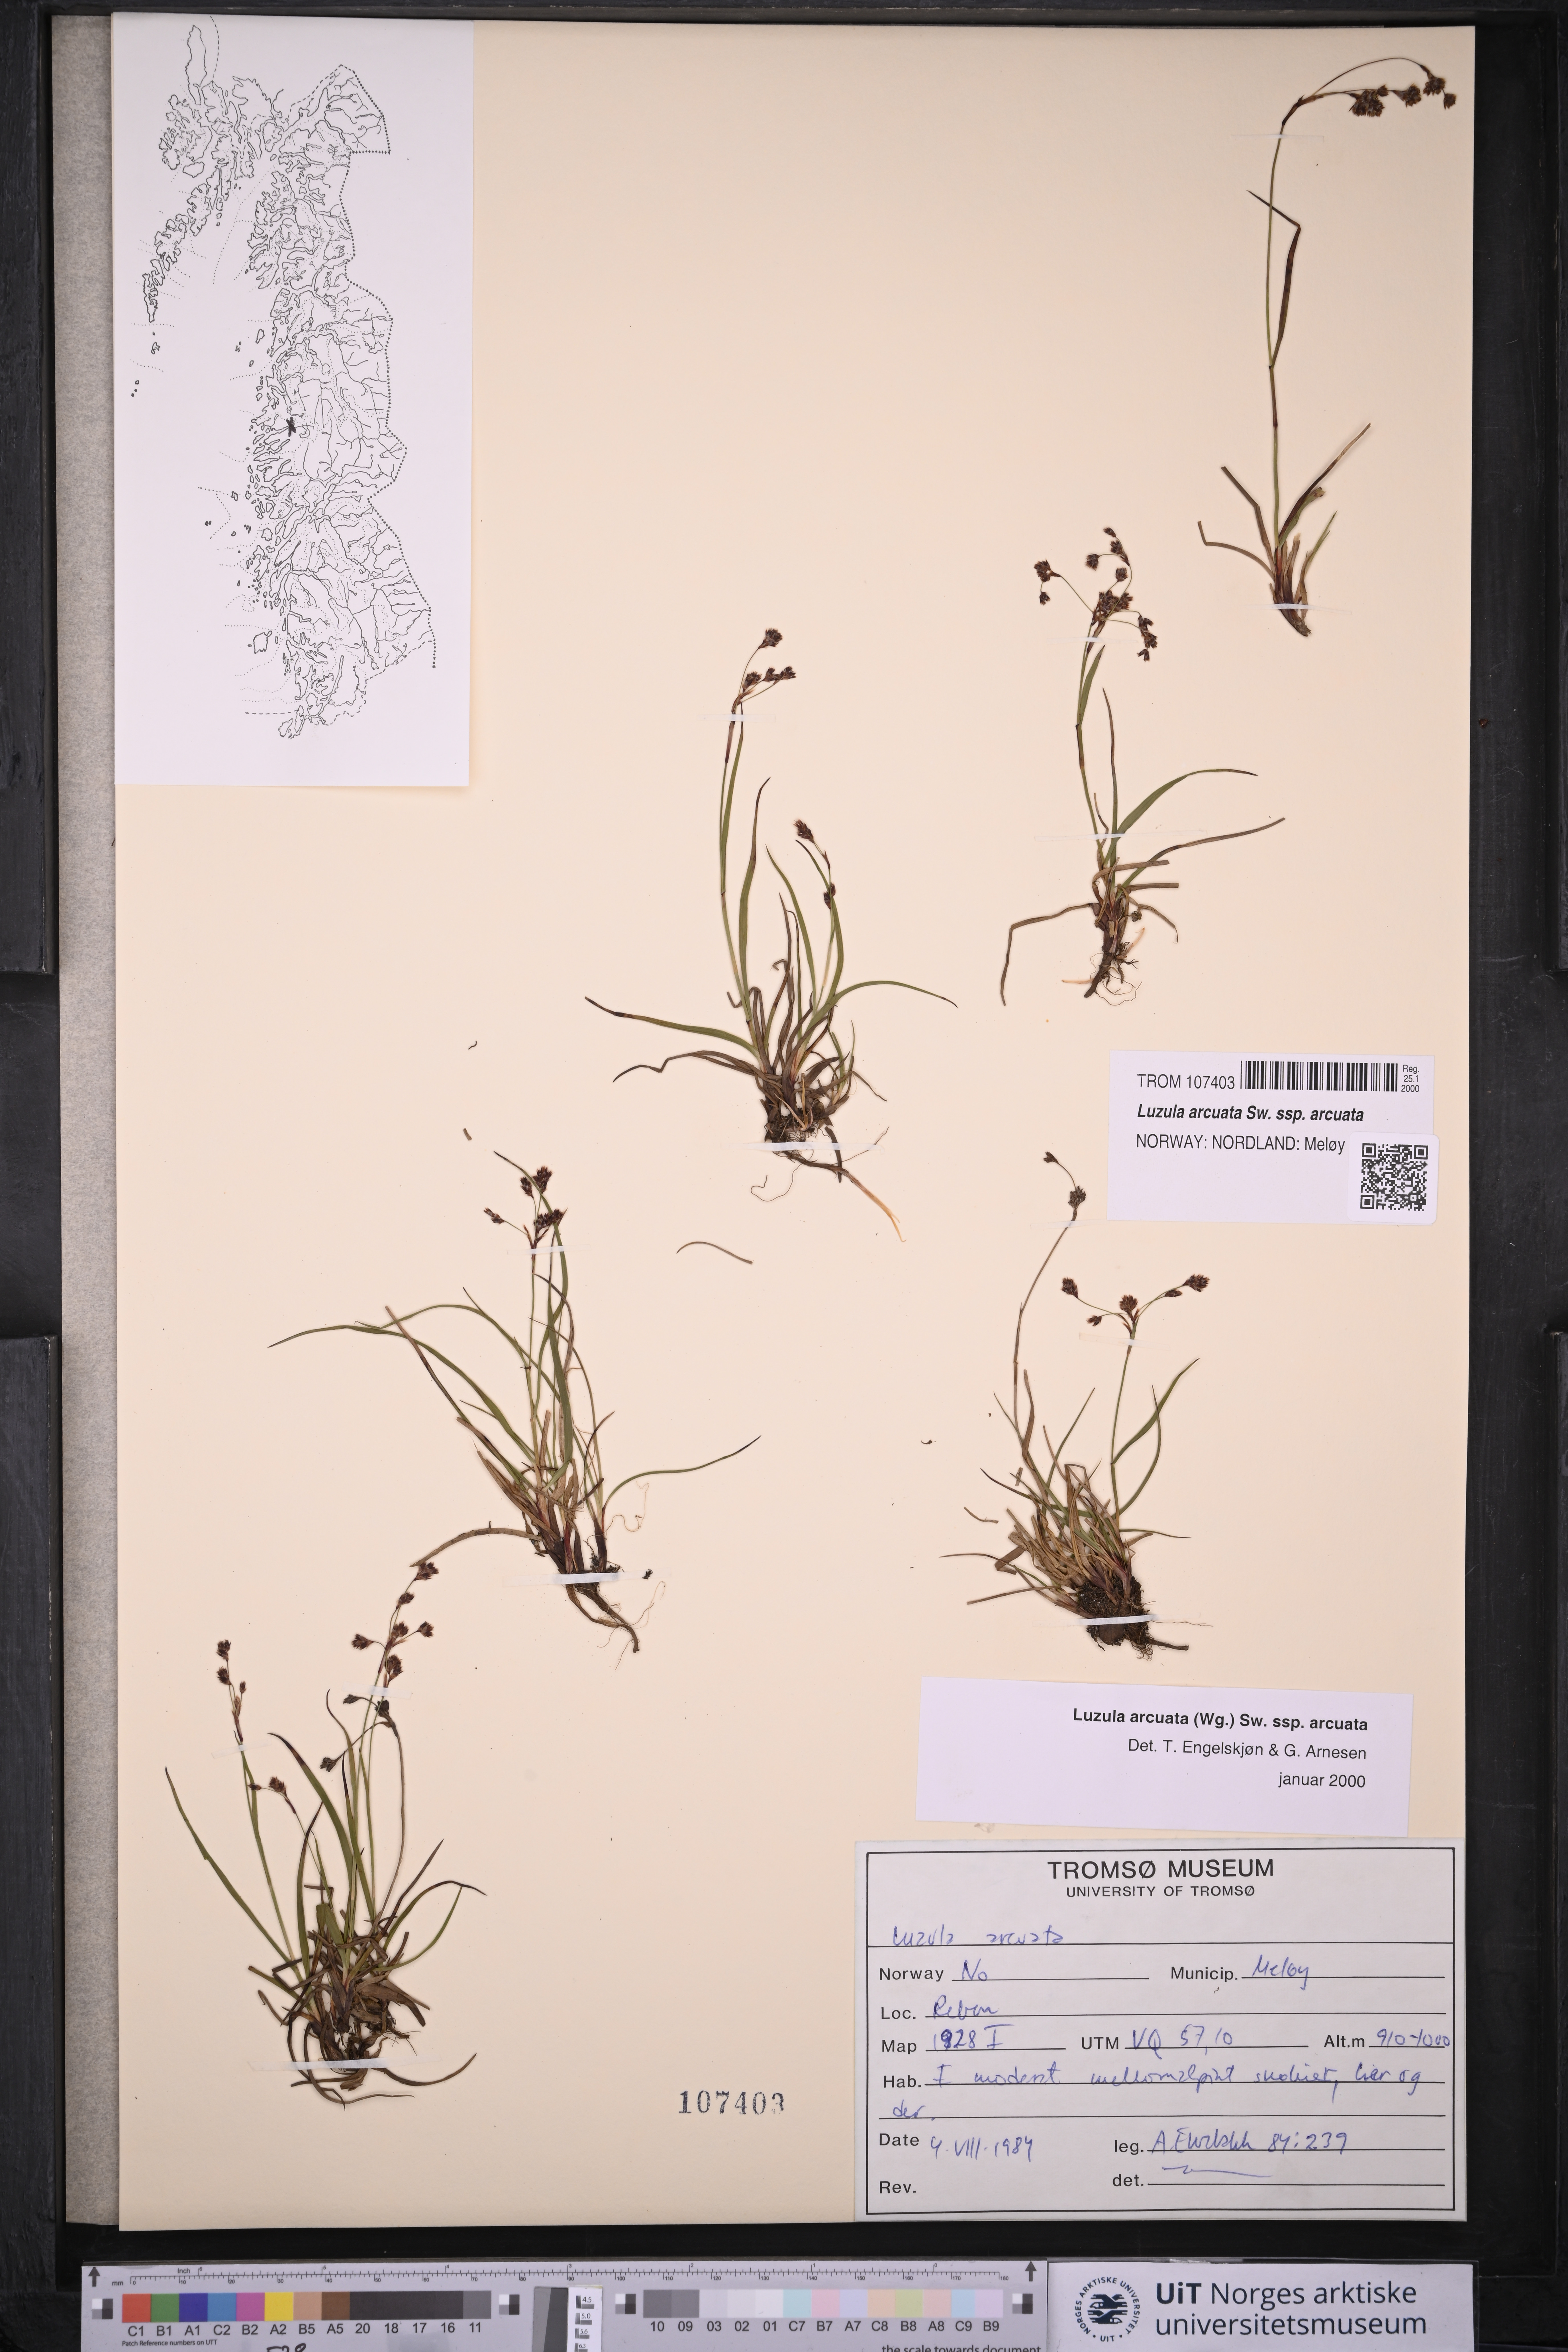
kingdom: Plantae
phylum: Tracheophyta
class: Liliopsida
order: Poales
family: Juncaceae
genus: Luzula
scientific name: Luzula arcuata
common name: Curved wood-rush
